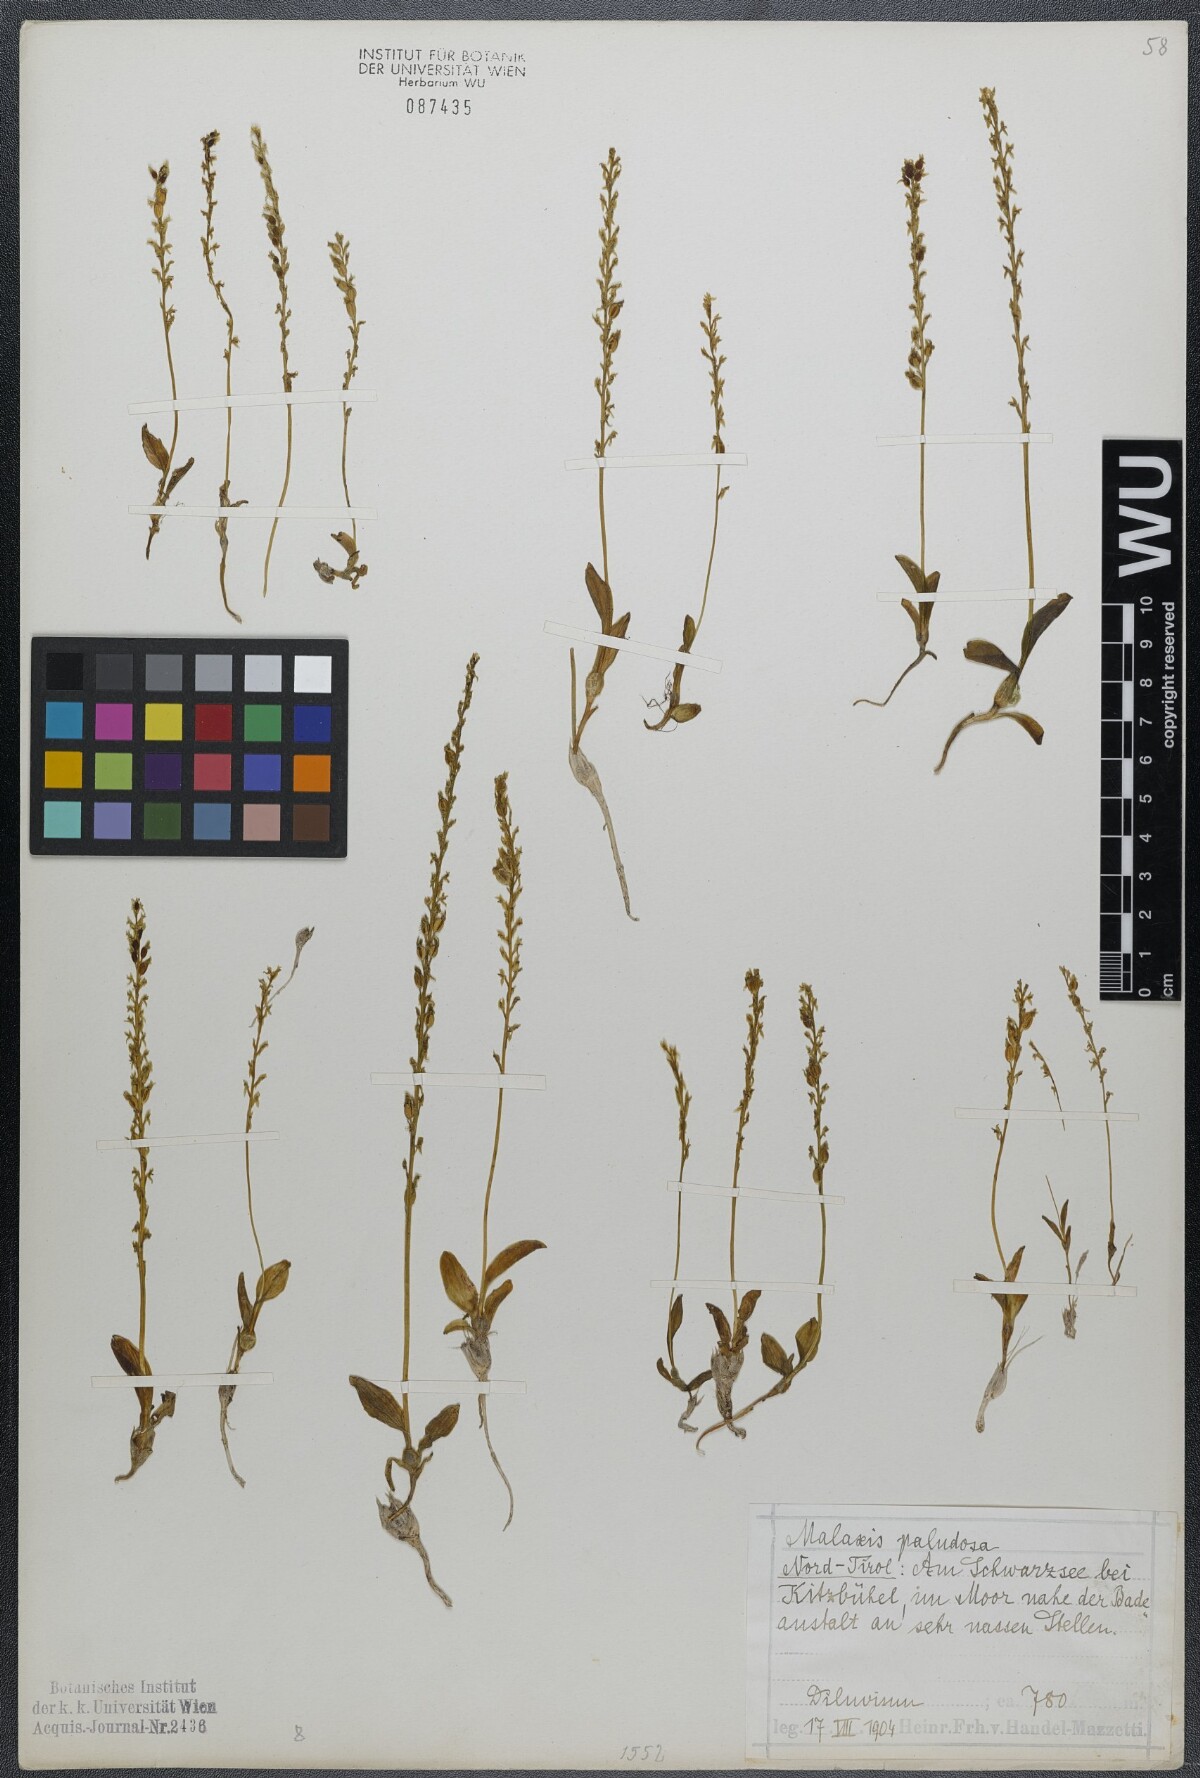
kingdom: Plantae
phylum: Tracheophyta
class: Liliopsida
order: Asparagales
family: Orchidaceae
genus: Hammarbya
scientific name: Hammarbya paludosa
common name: Bog orchid
